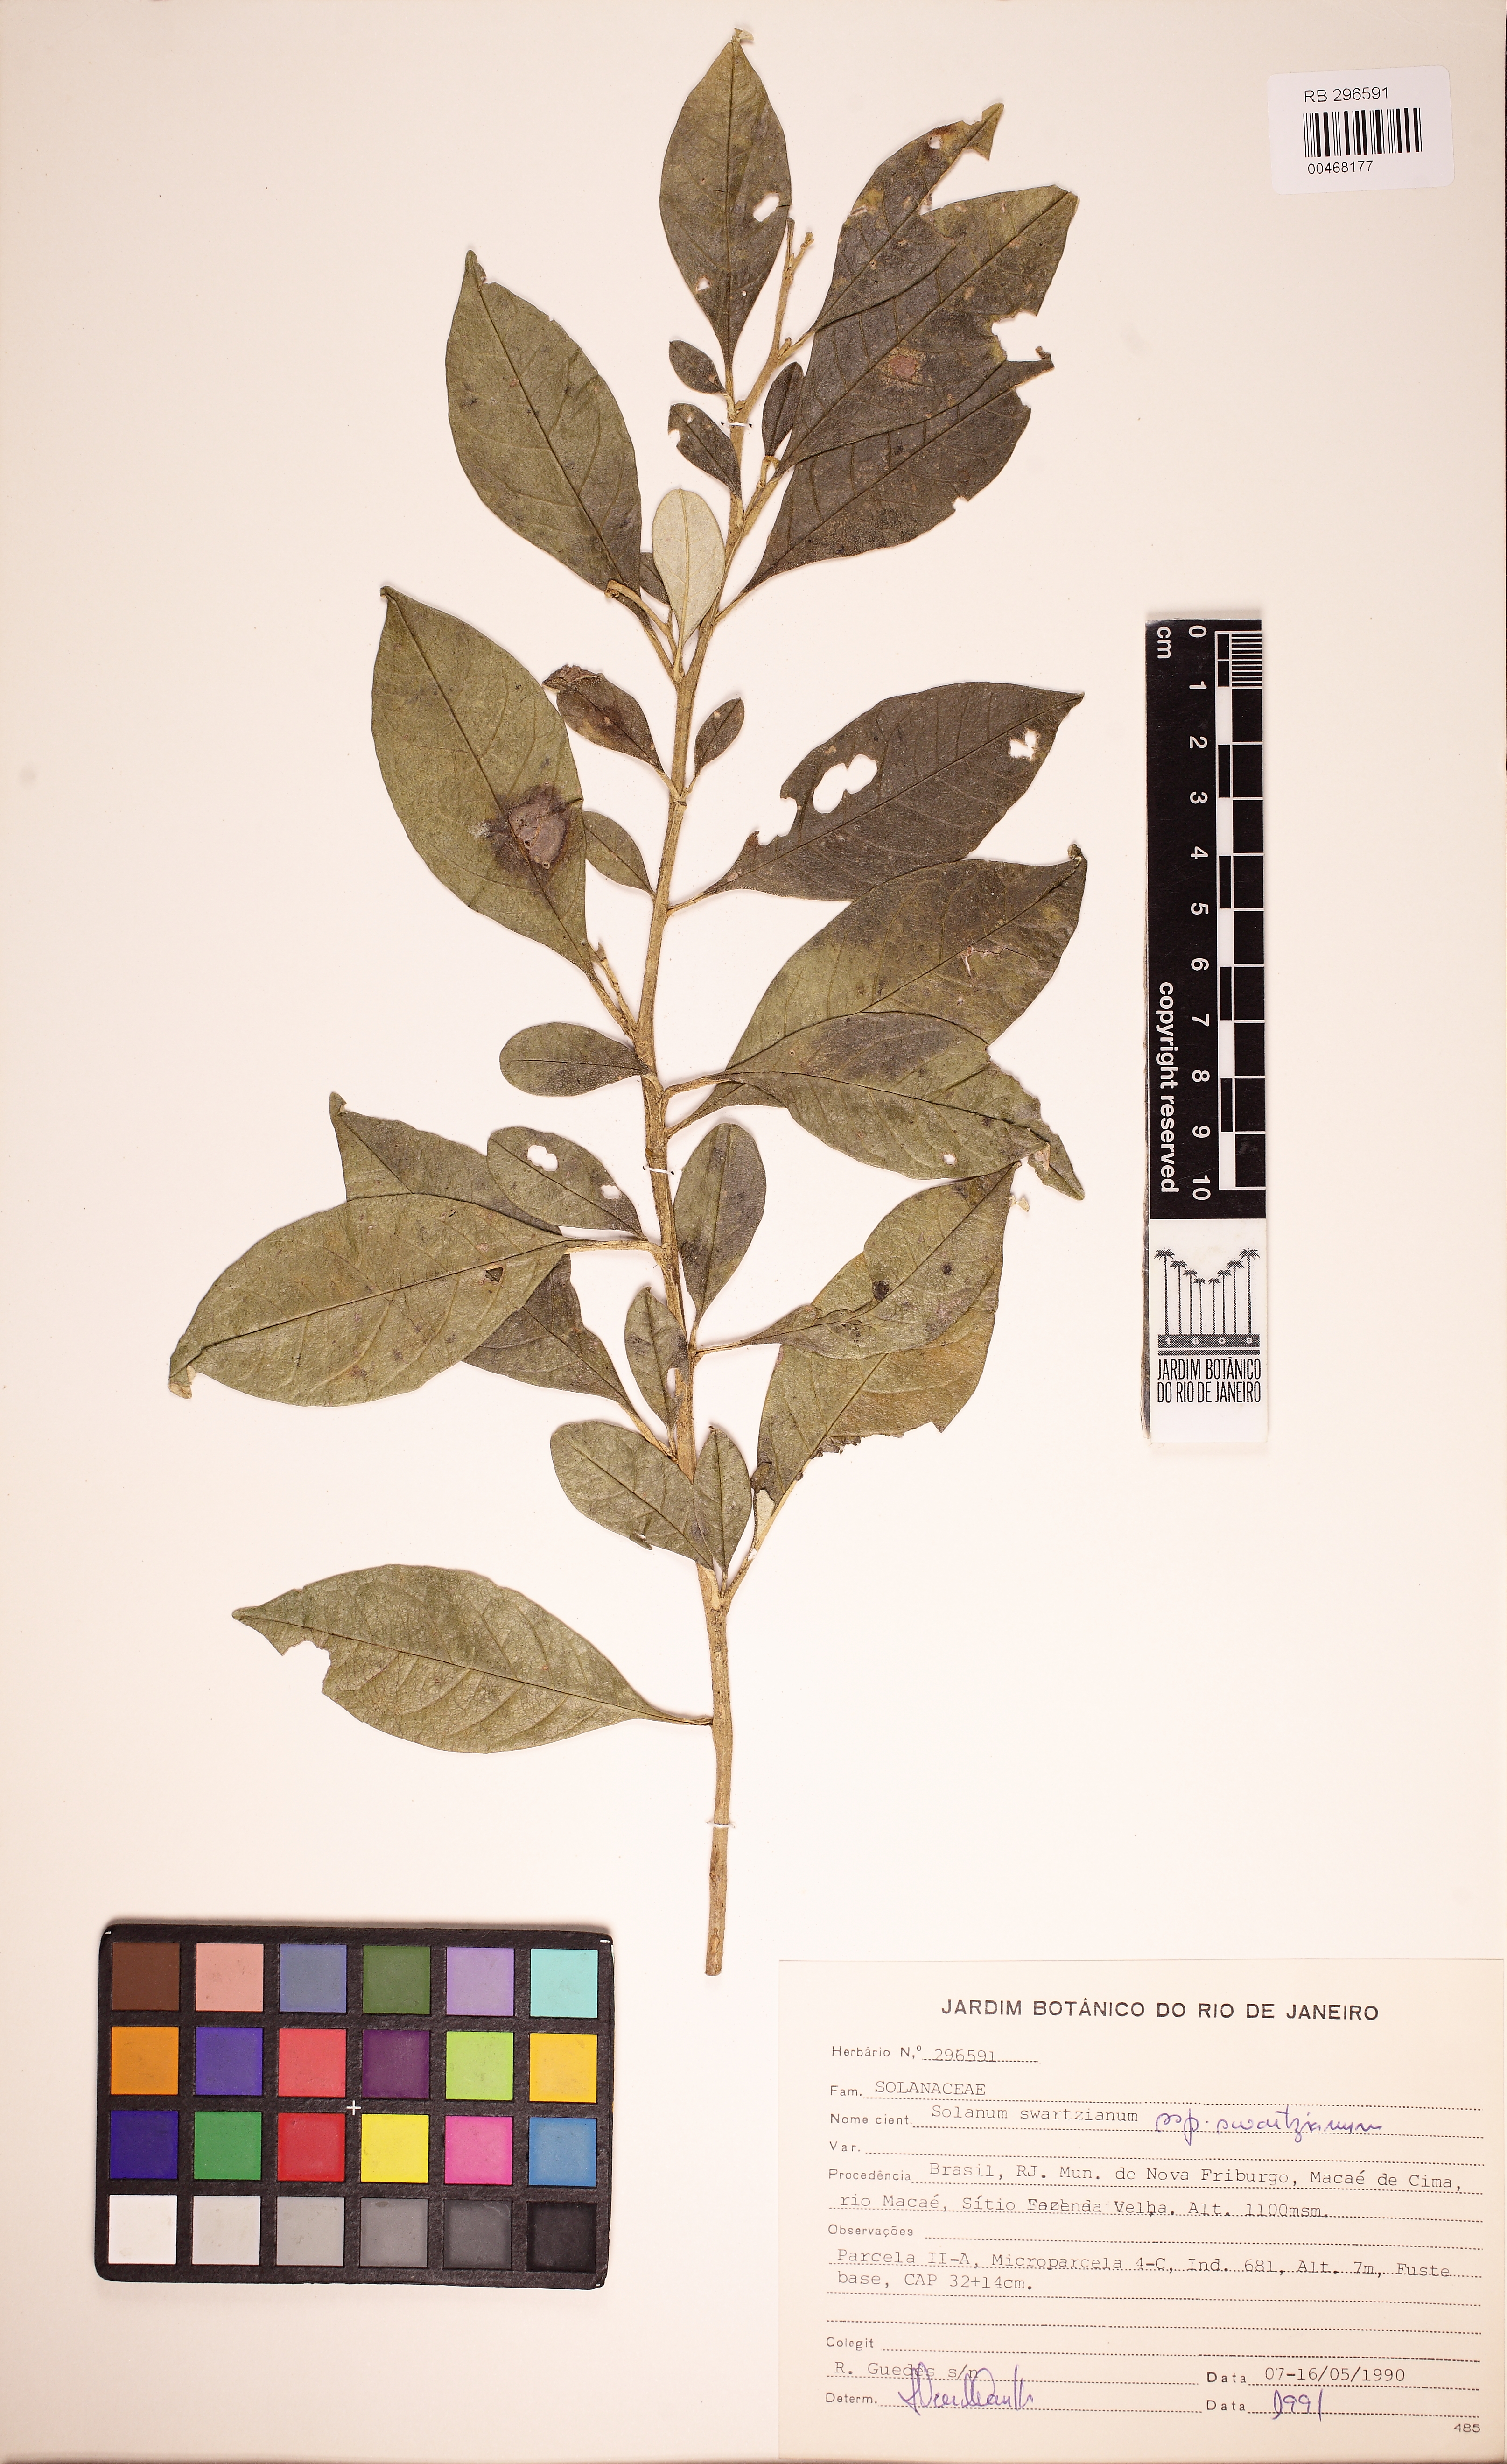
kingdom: Plantae
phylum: Tracheophyta
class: Magnoliopsida
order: Solanales
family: Solanaceae
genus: Solanum
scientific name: Solanum swartzianum
